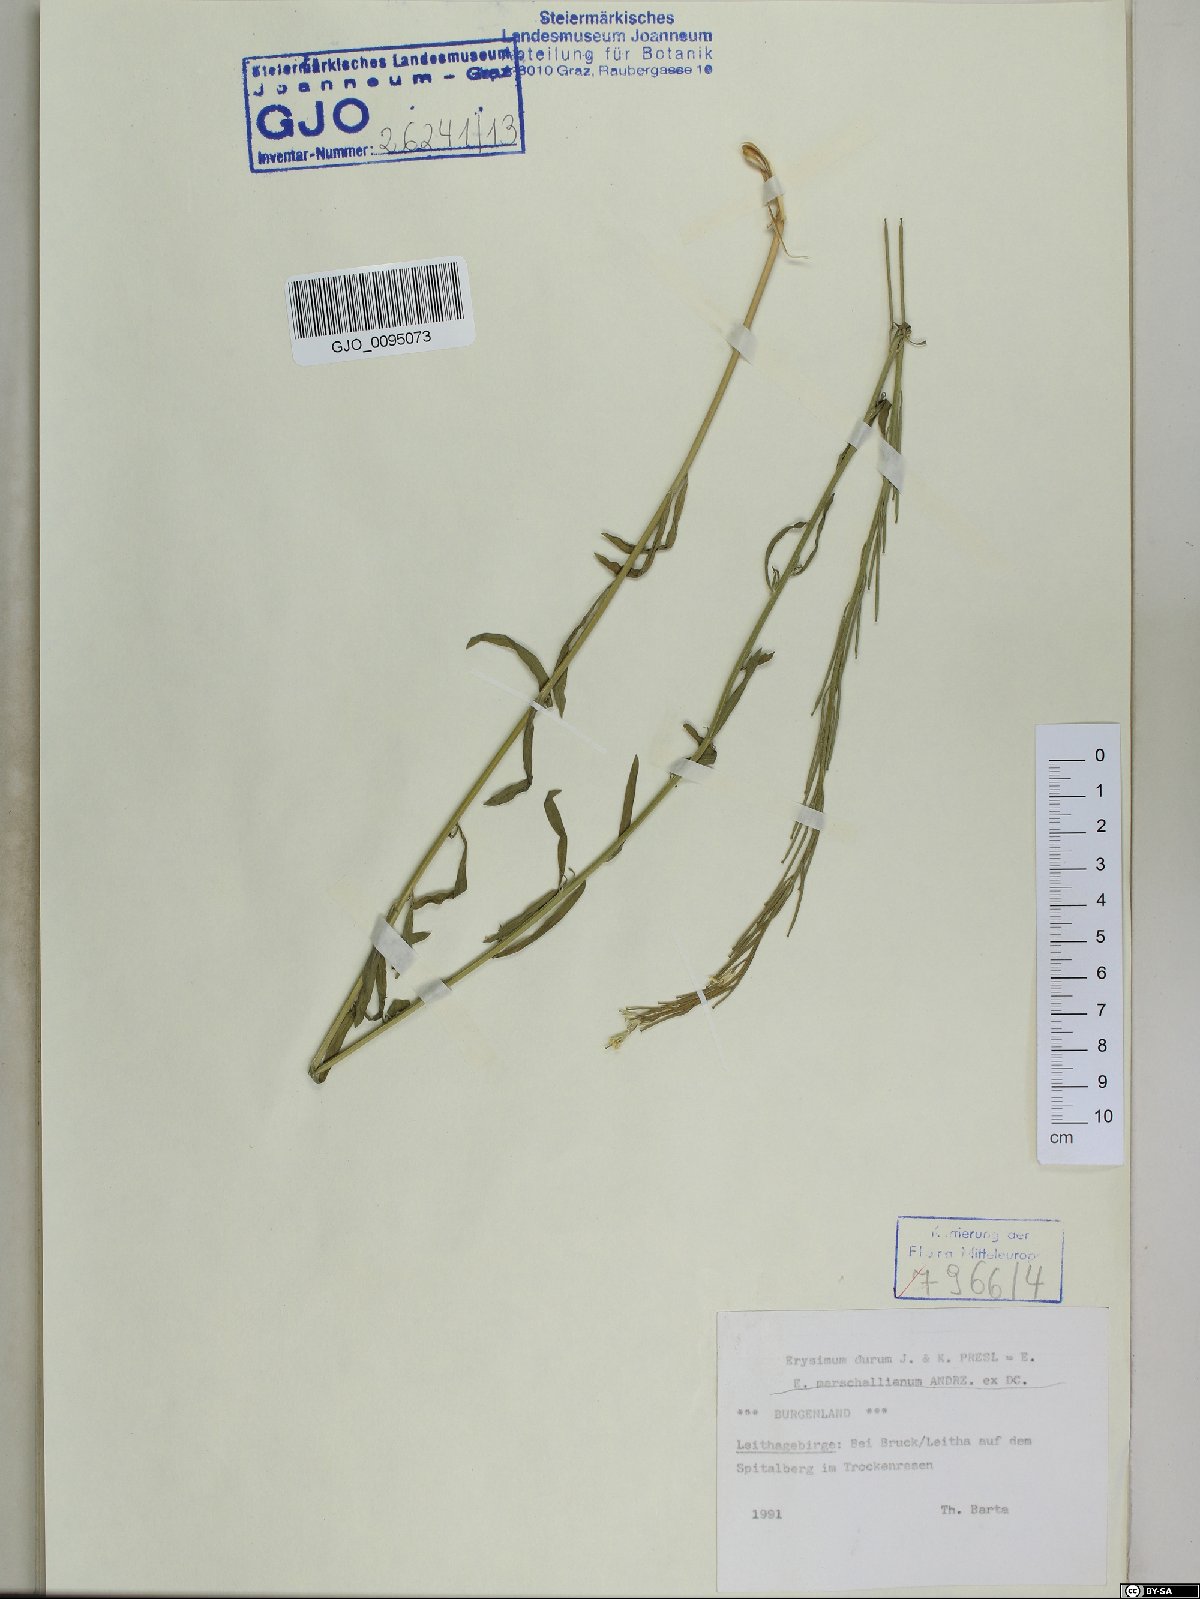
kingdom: Plantae
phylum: Tracheophyta
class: Magnoliopsida
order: Brassicales
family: Brassicaceae
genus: Erysimum
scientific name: Erysimum marschallianum
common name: Hard wallflower
